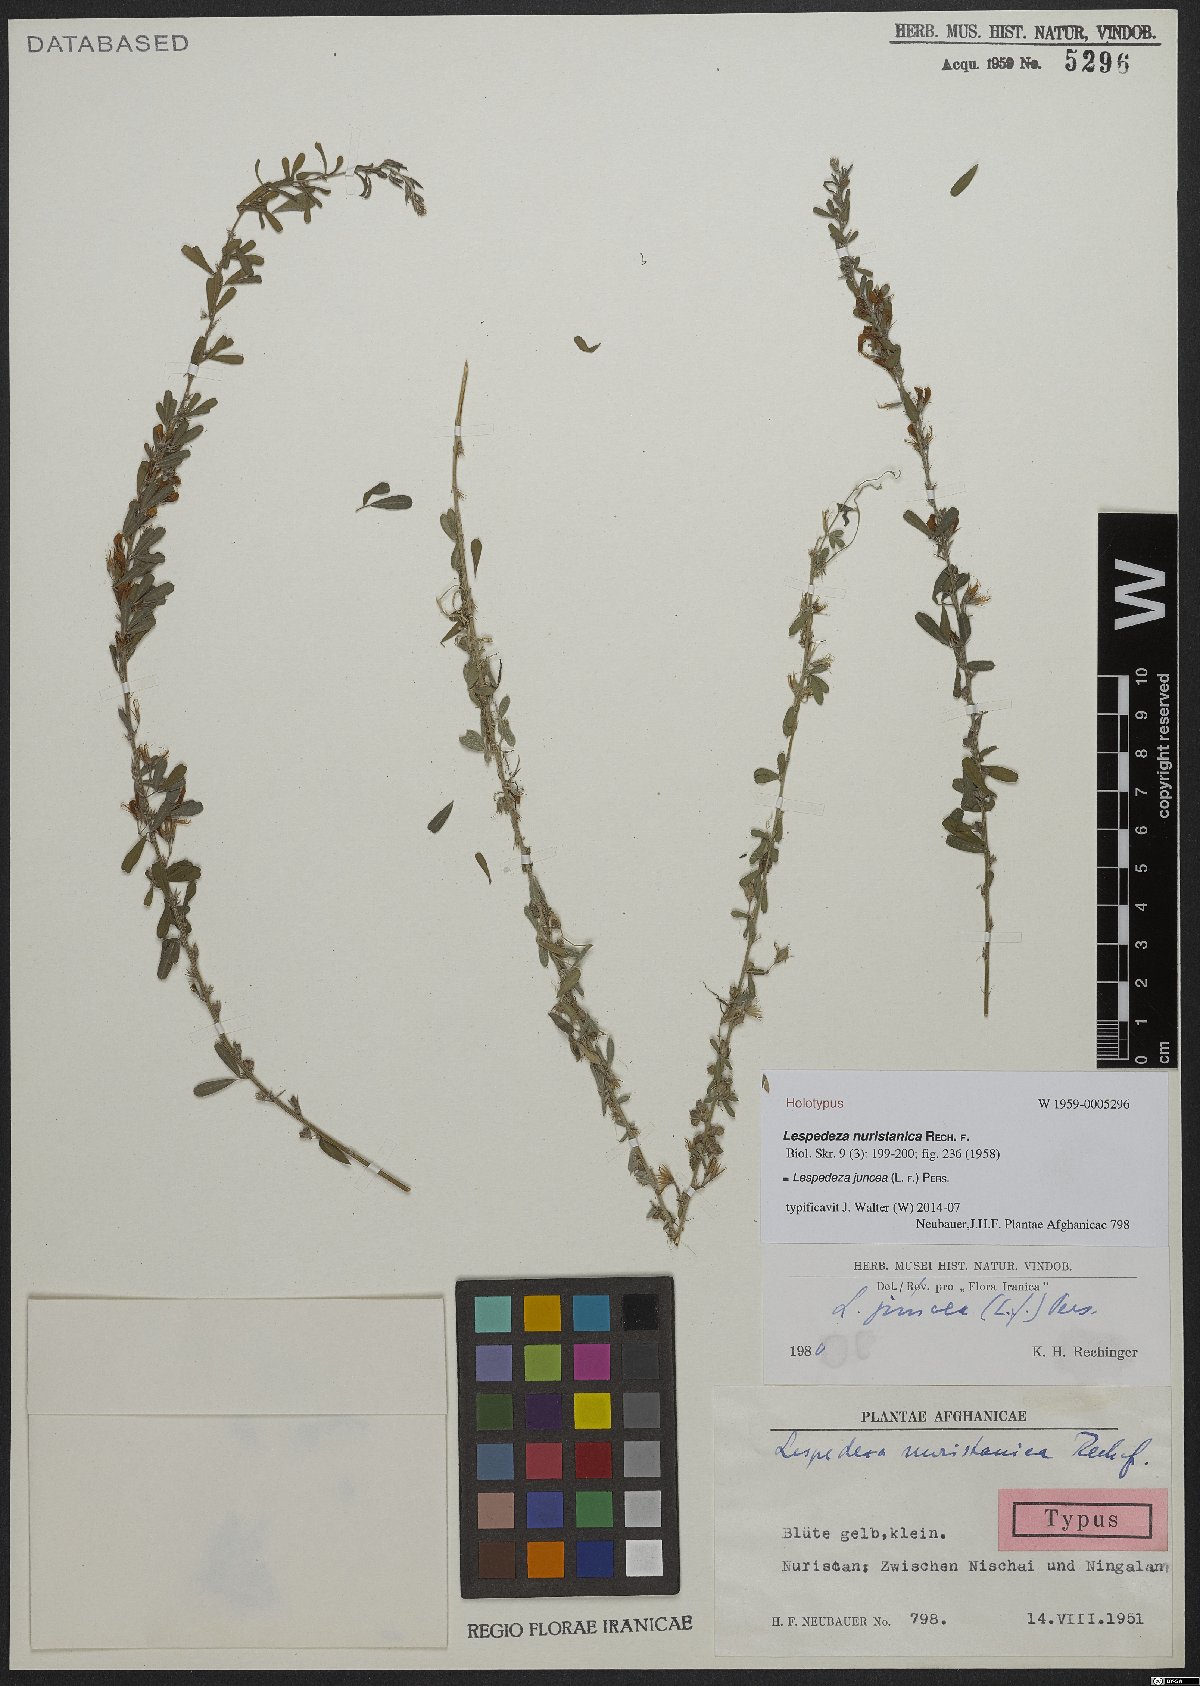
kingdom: Plantae
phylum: Tracheophyta
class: Magnoliopsida
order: Fabales
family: Fabaceae
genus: Lespedeza
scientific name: Lespedeza juncea
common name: Siberian lespedeza
